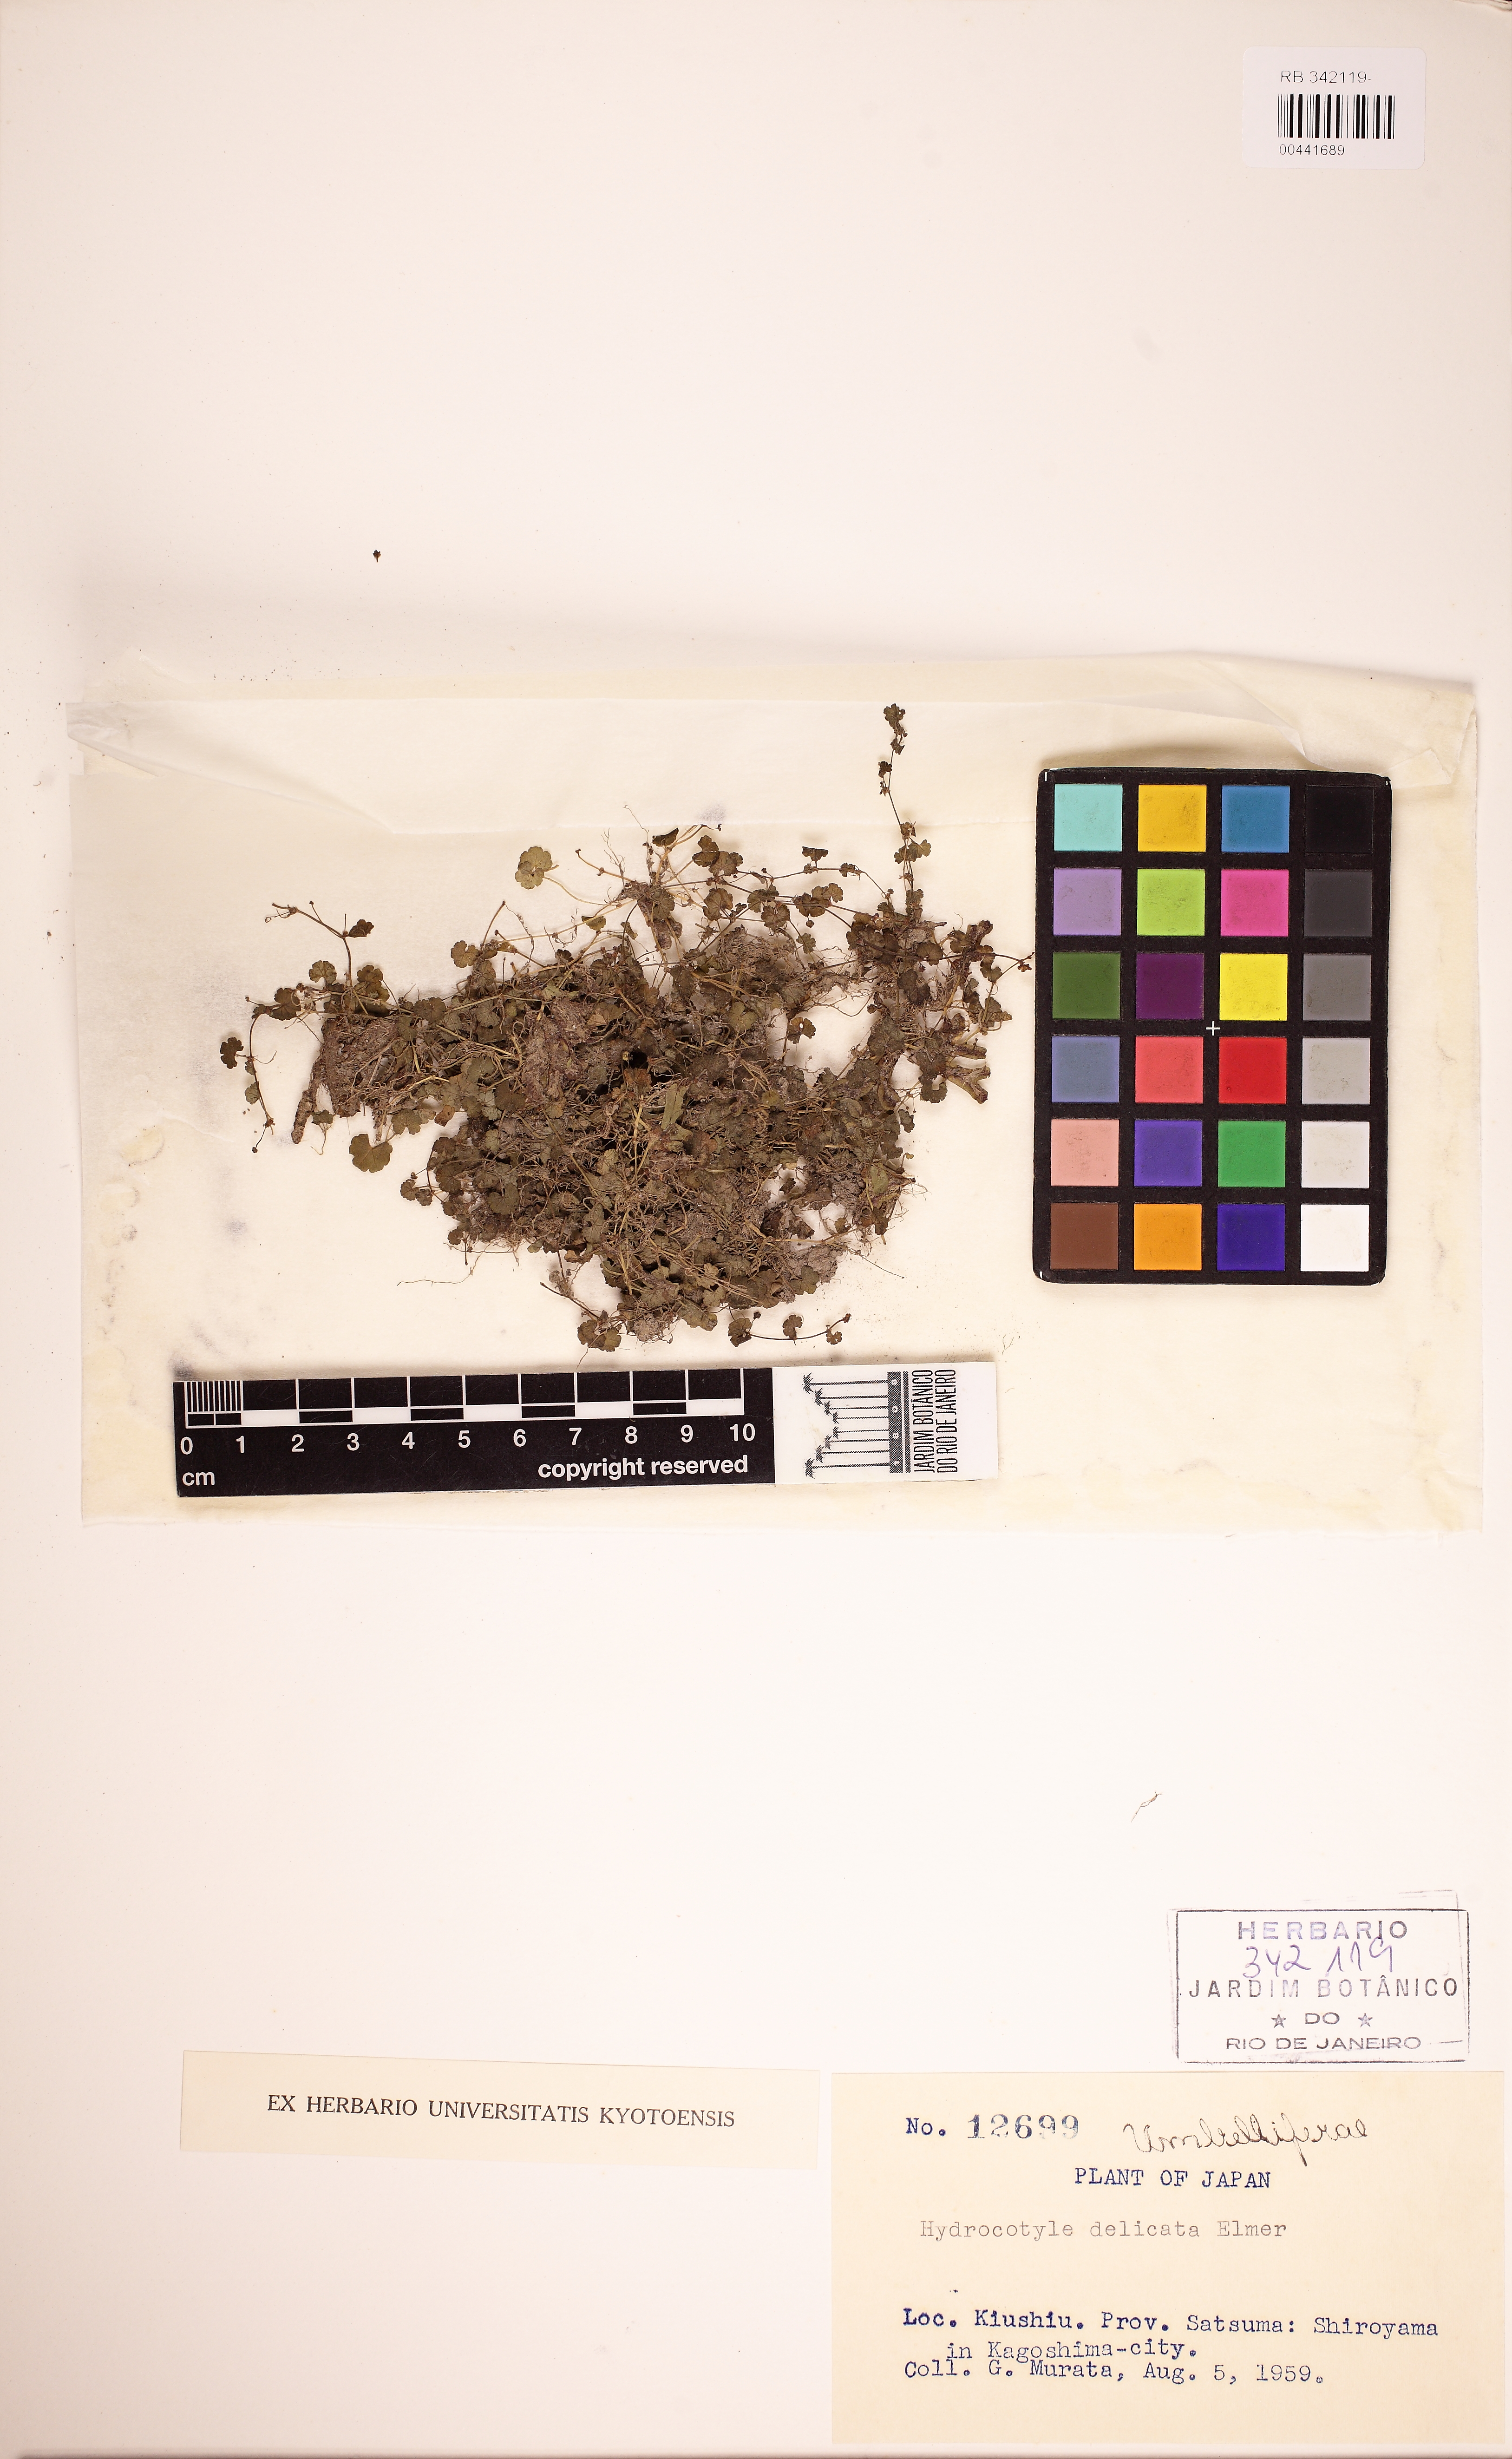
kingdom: Plantae
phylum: Tracheophyta
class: Magnoliopsida
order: Apiales
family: Araliaceae
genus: Hydrocotyle
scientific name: Hydrocotyle dichondroides
